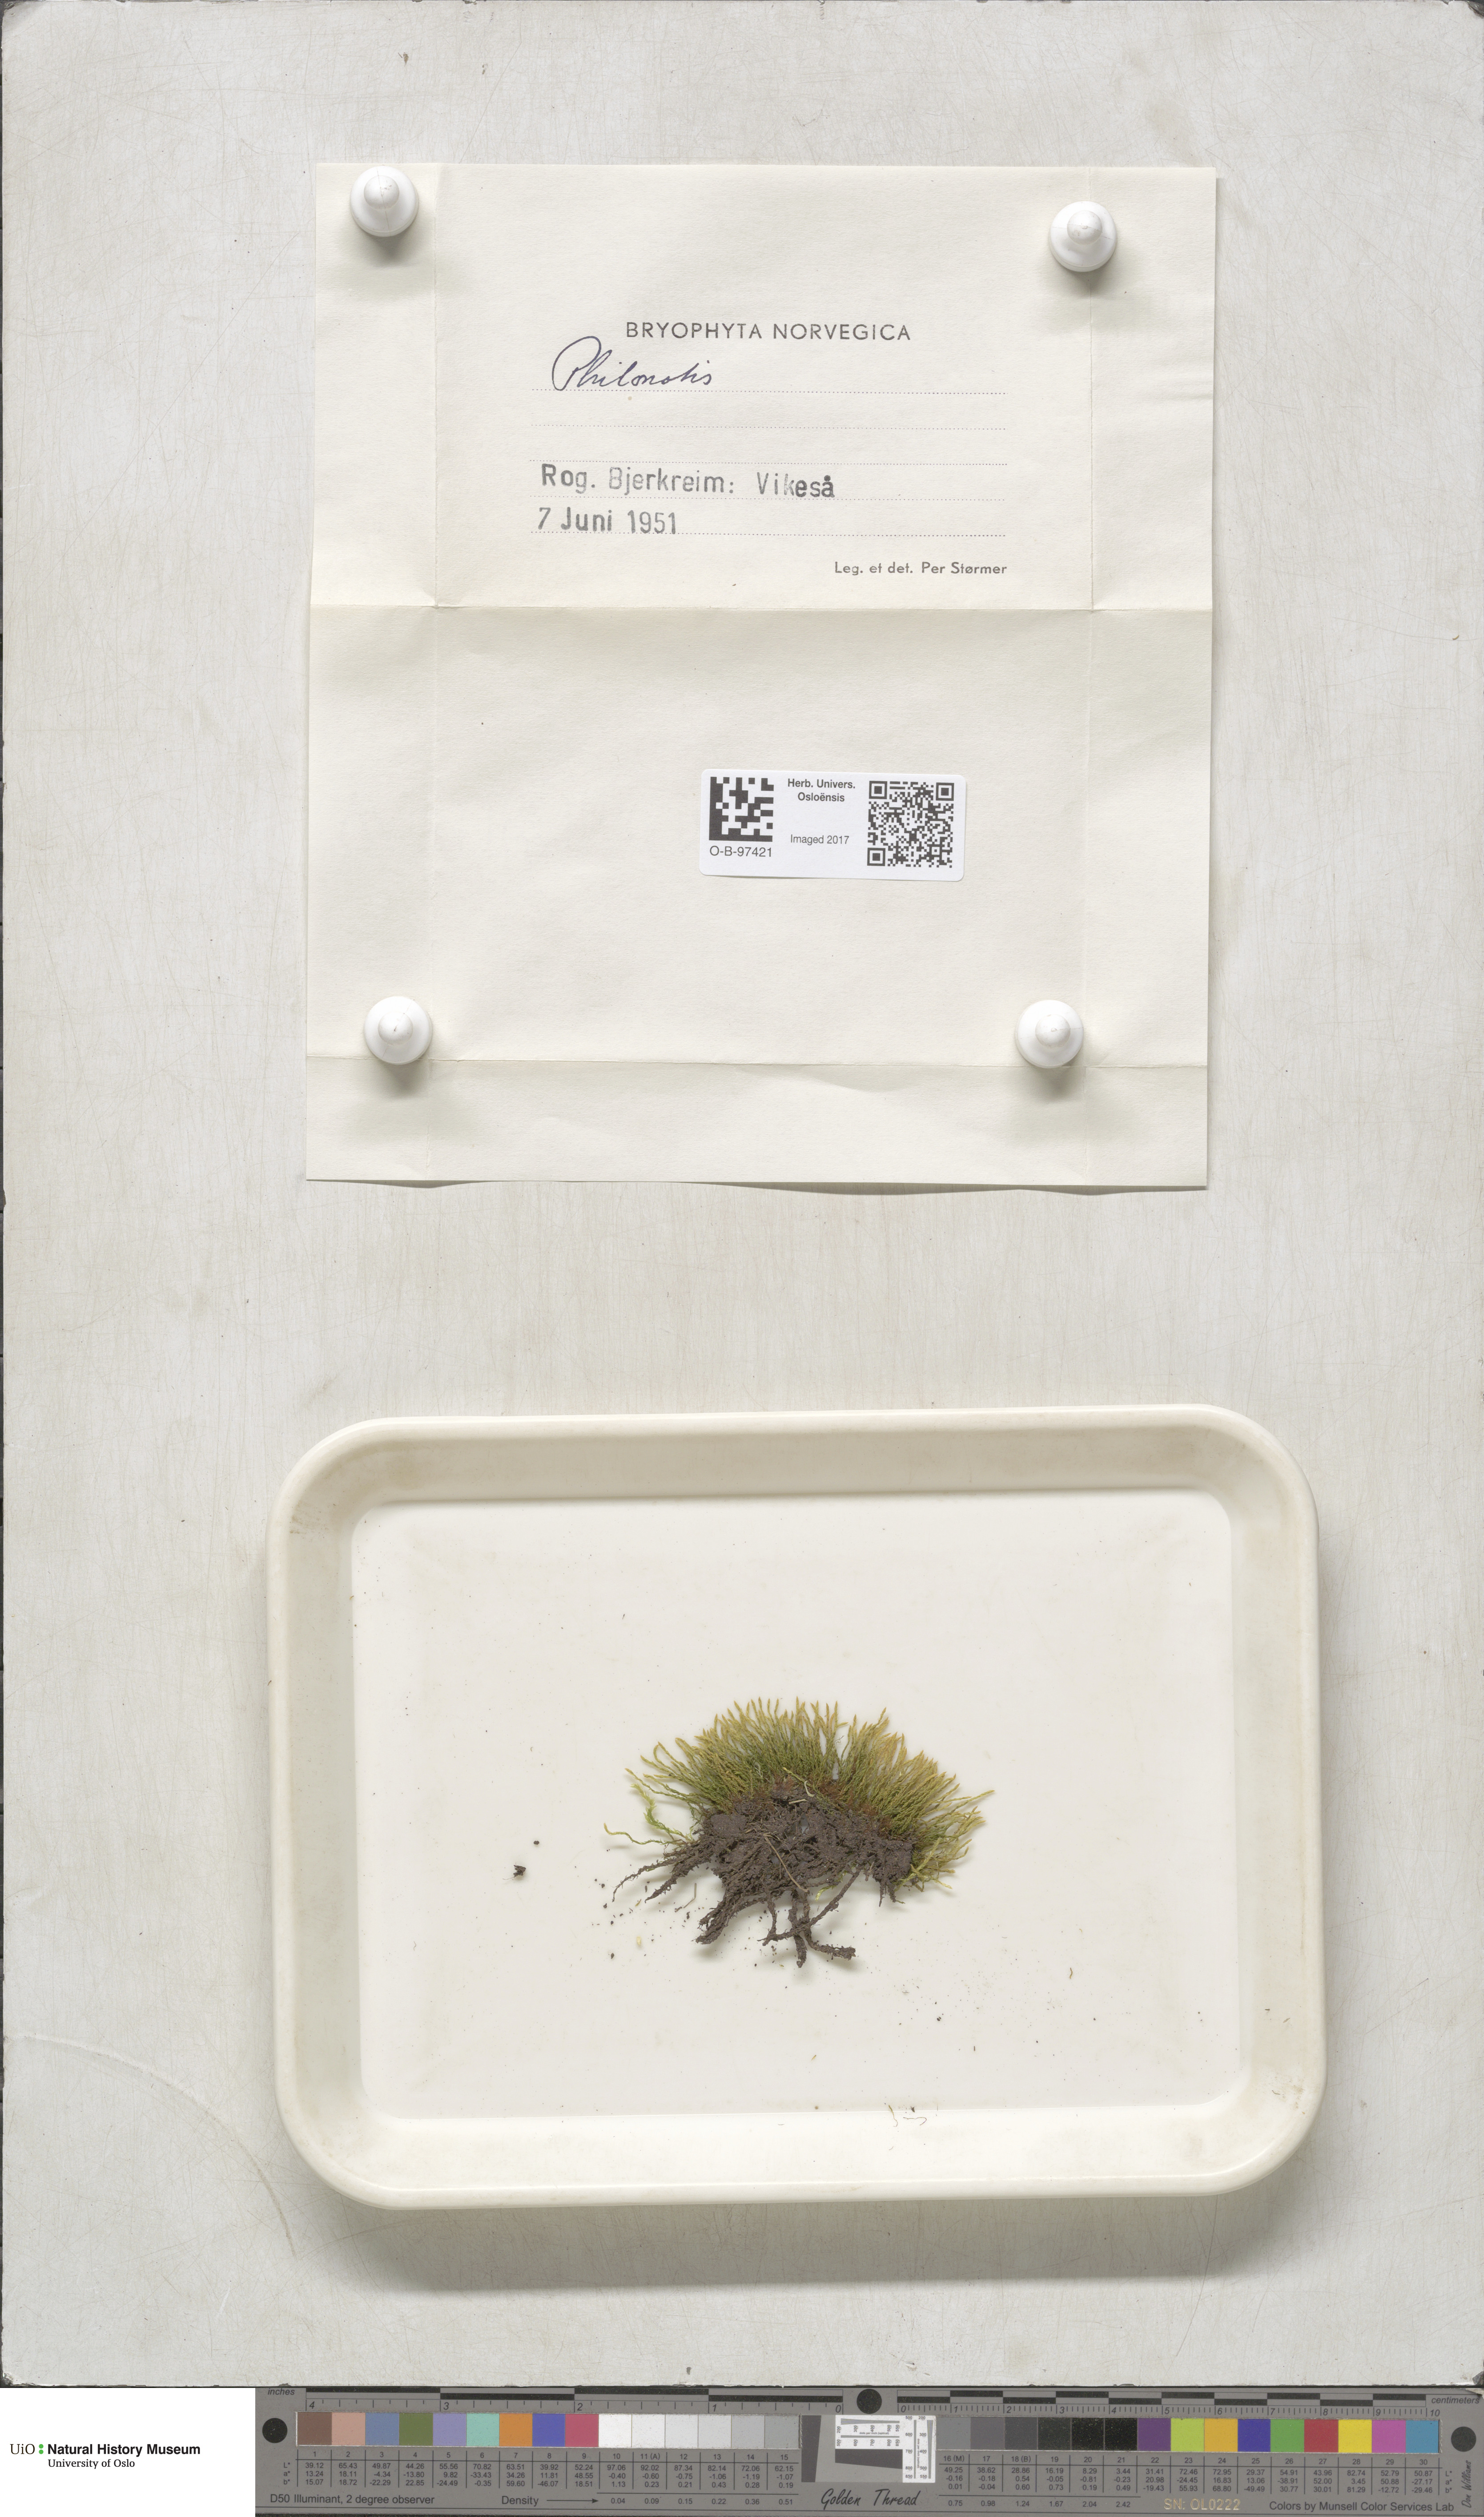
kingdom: Plantae
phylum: Bryophyta
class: Bryopsida
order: Bartramiales
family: Bartramiaceae
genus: Philonotis
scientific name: Philonotis
